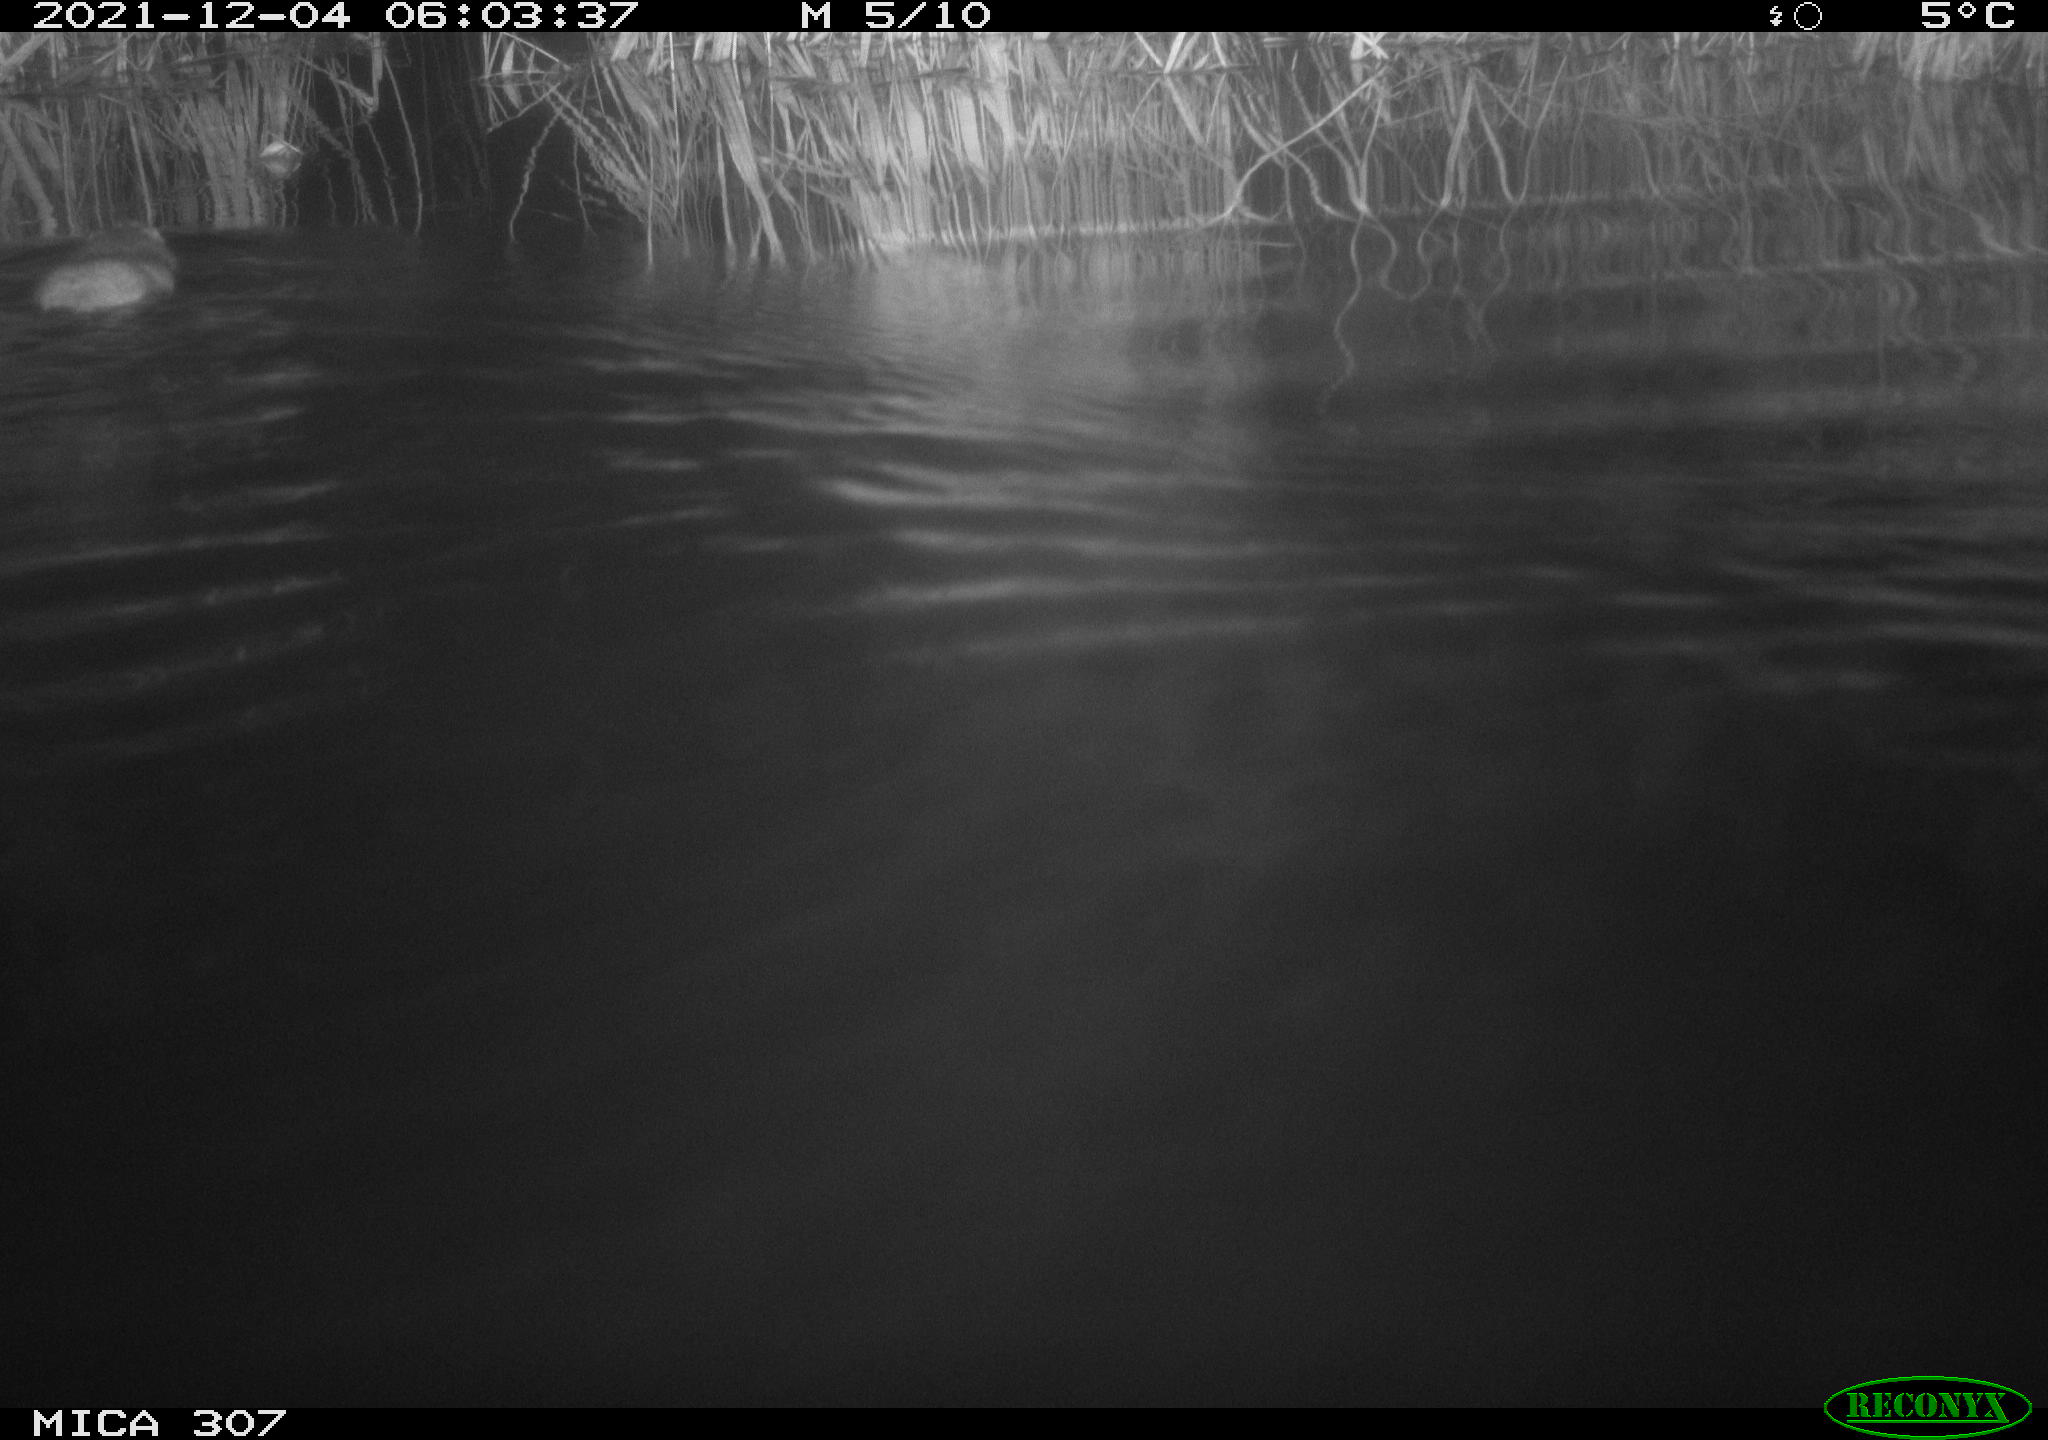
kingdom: Animalia
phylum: Chordata
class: Mammalia
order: Rodentia
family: Cricetidae
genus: Ondatra
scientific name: Ondatra zibethicus
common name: Muskrat
